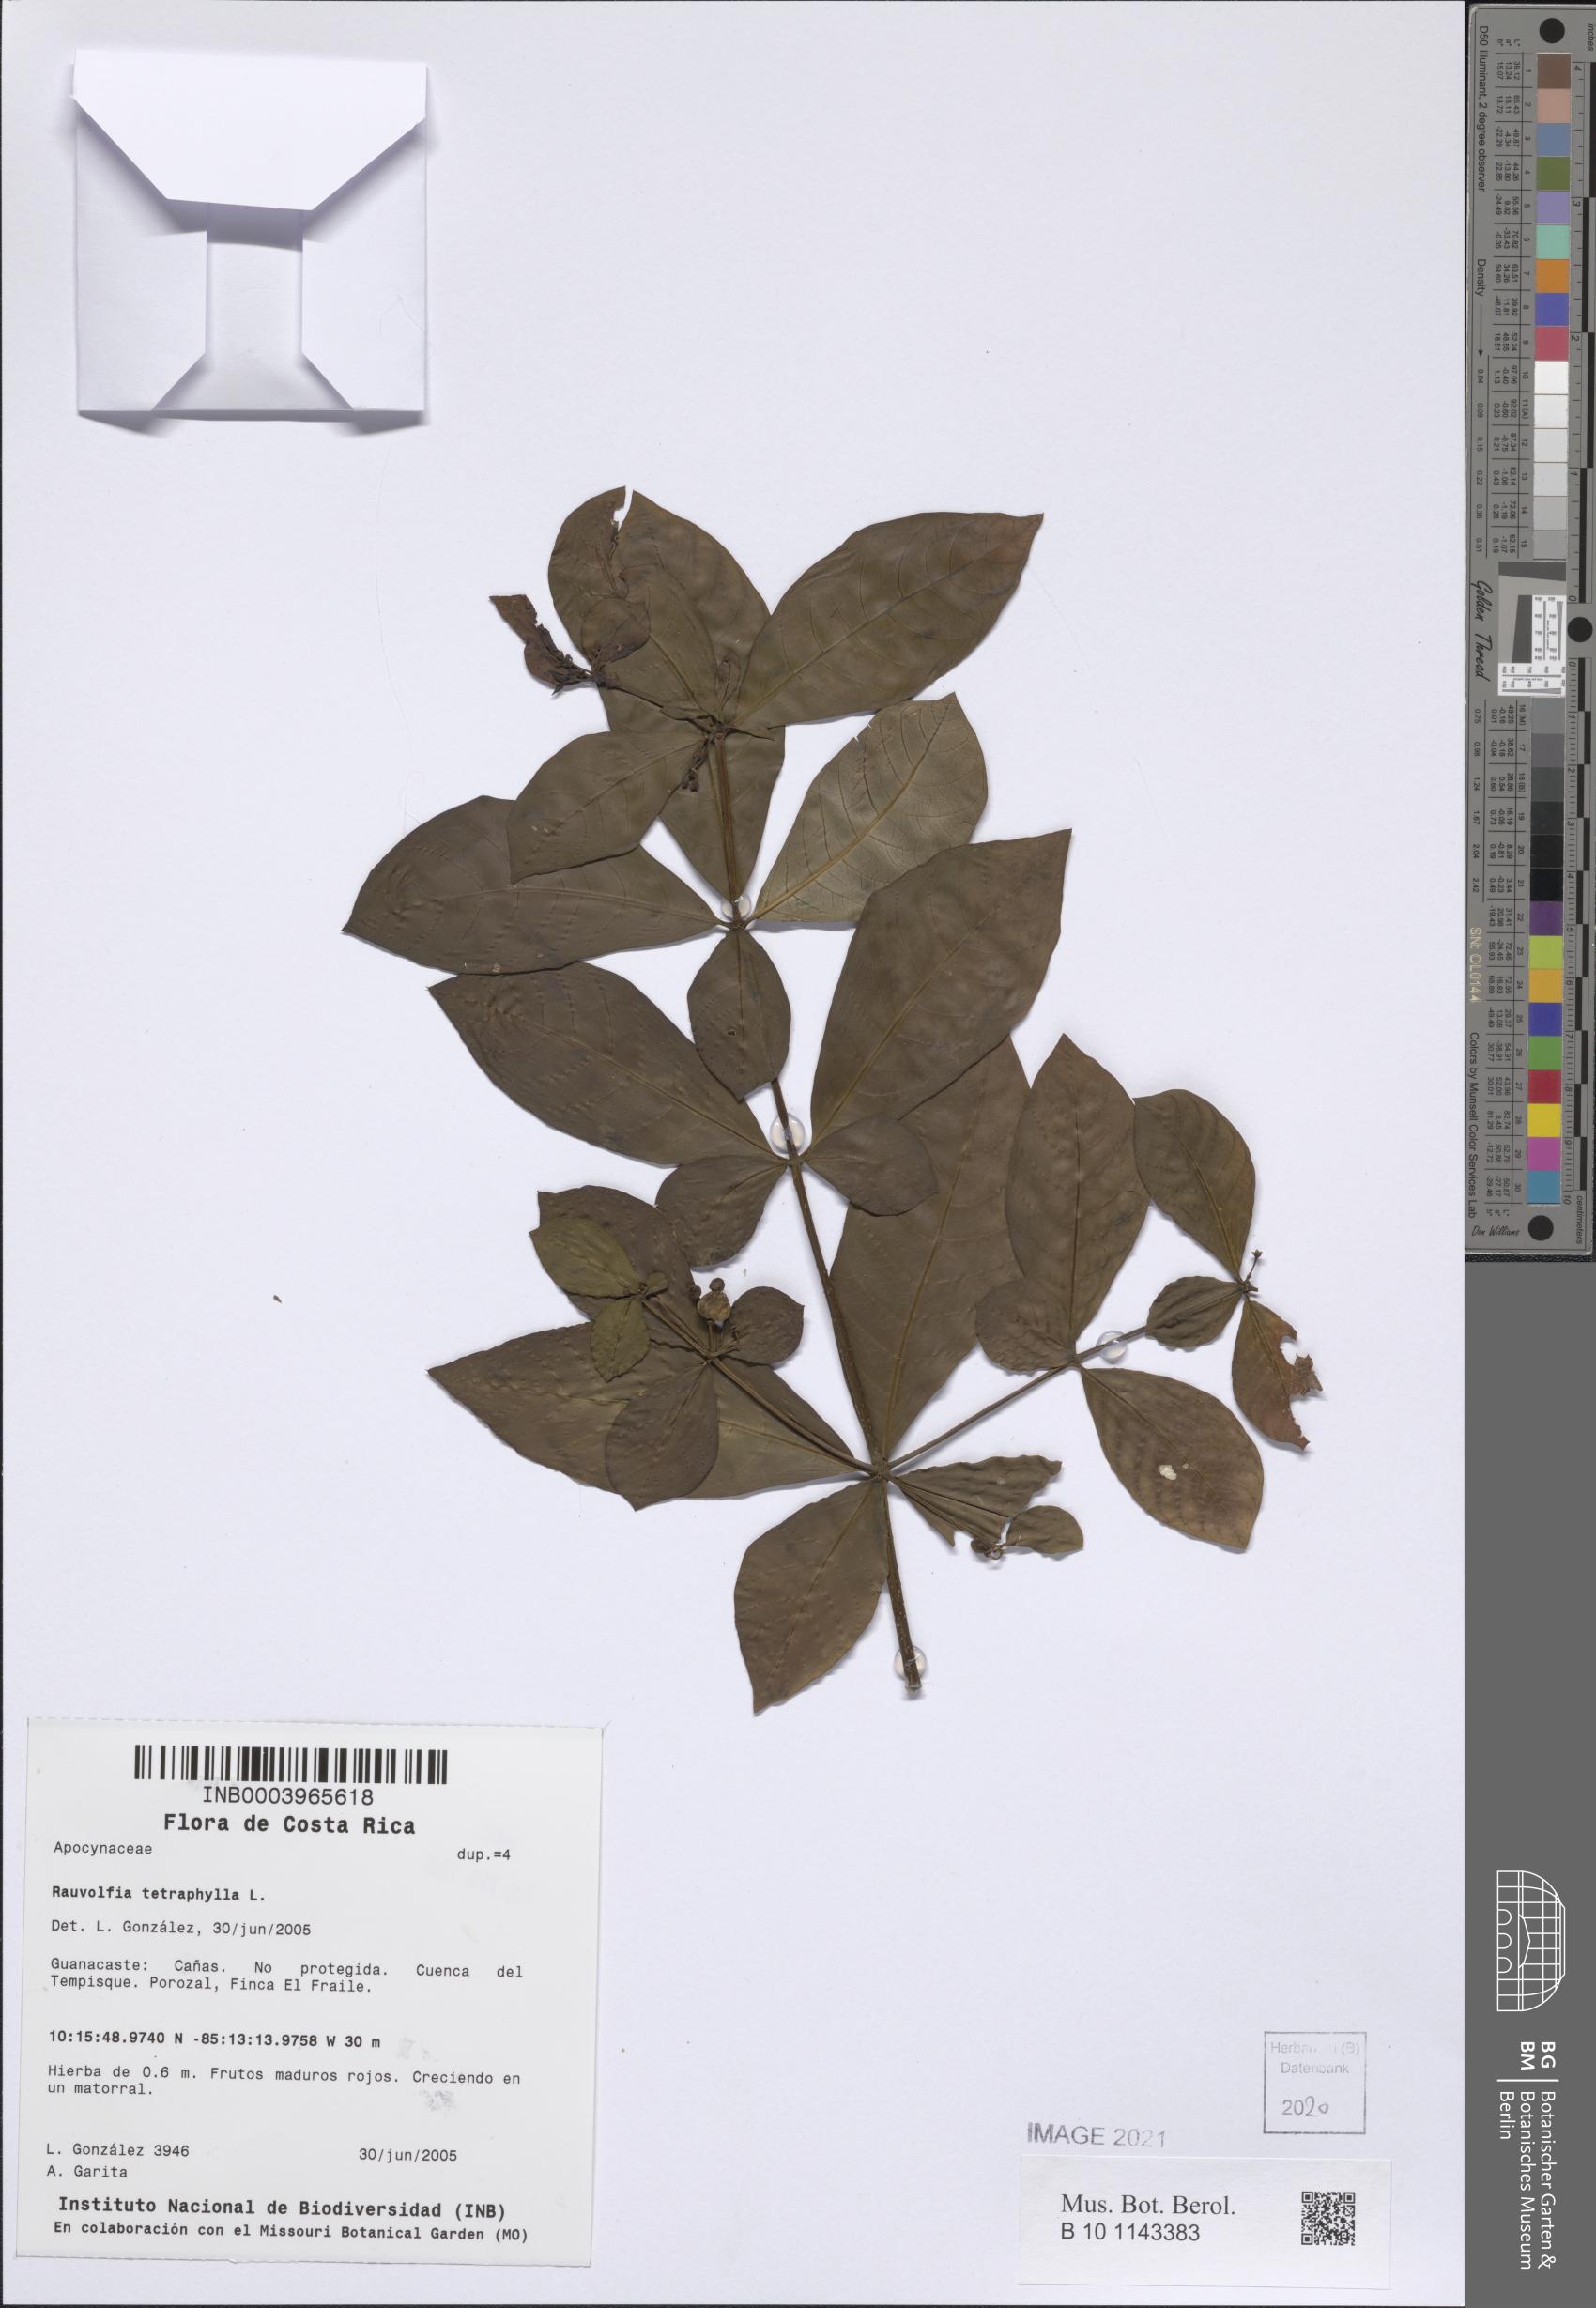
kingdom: Plantae
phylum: Tracheophyta
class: Magnoliopsida
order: Gentianales
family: Apocynaceae
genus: Rauvolfia
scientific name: Rauvolfia tetraphylla
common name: Four-leaf devil-pepper
